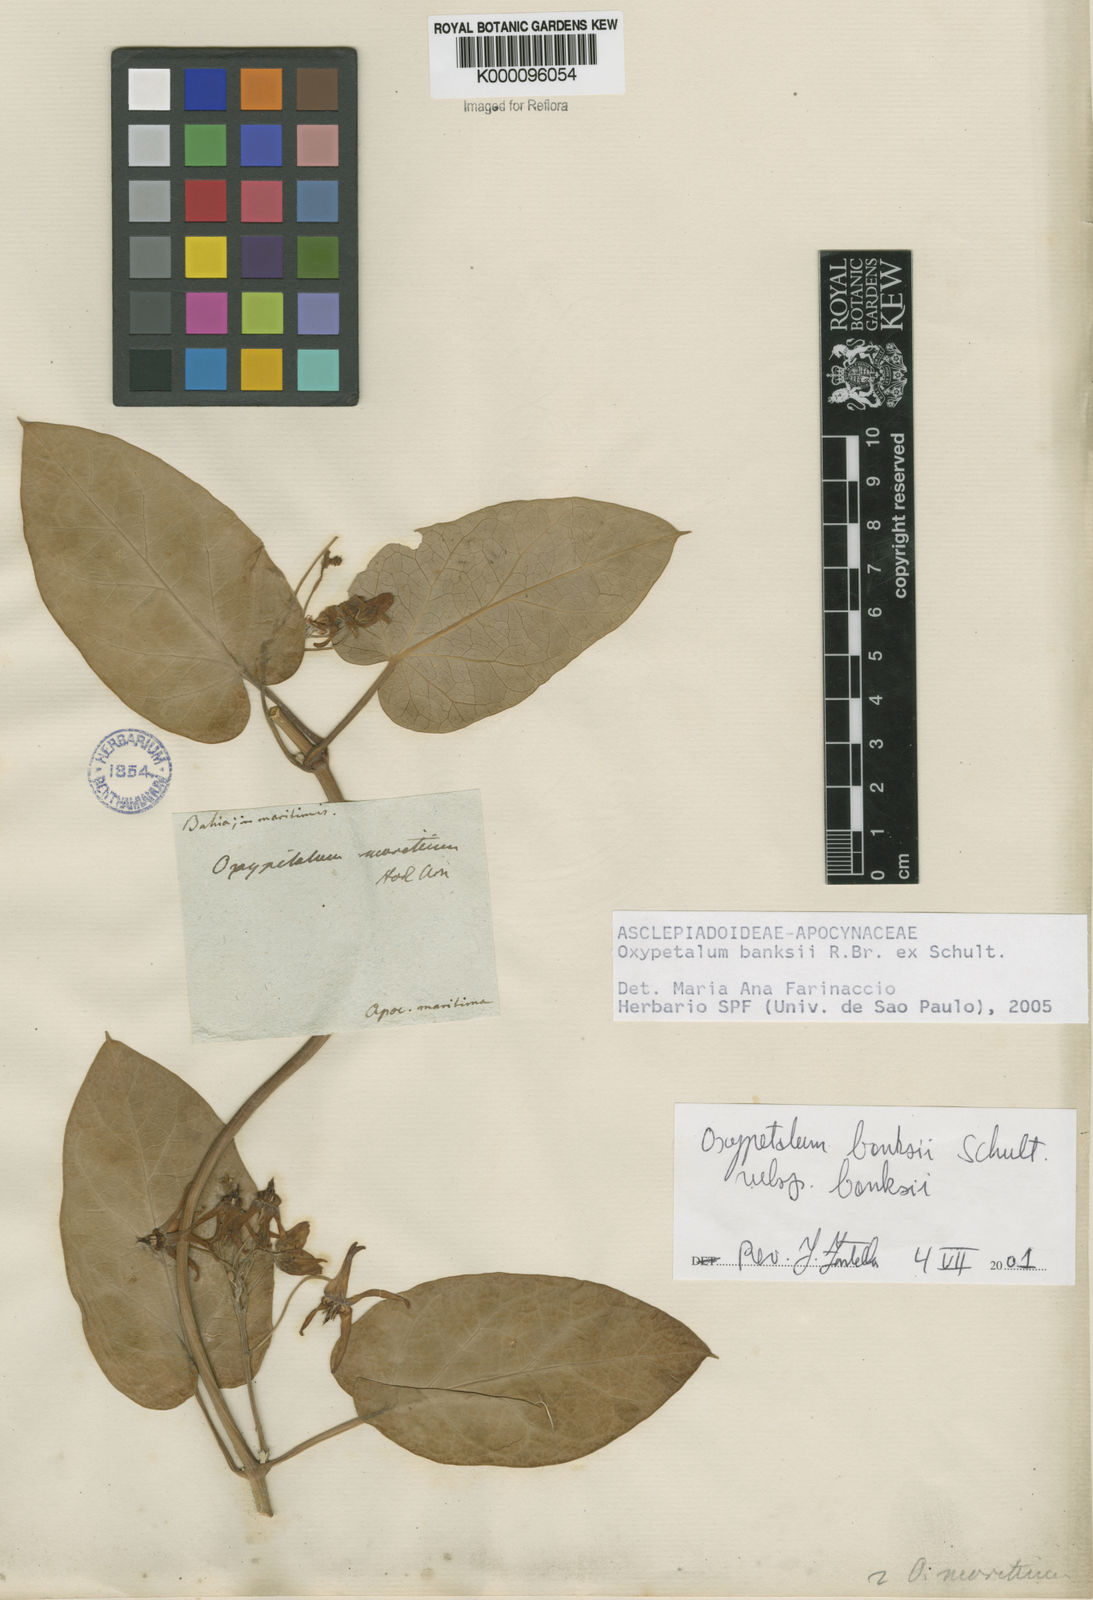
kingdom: Plantae
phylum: Tracheophyta
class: Magnoliopsida
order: Gentianales
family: Apocynaceae
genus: Oxypetalum
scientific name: Oxypetalum banksii
